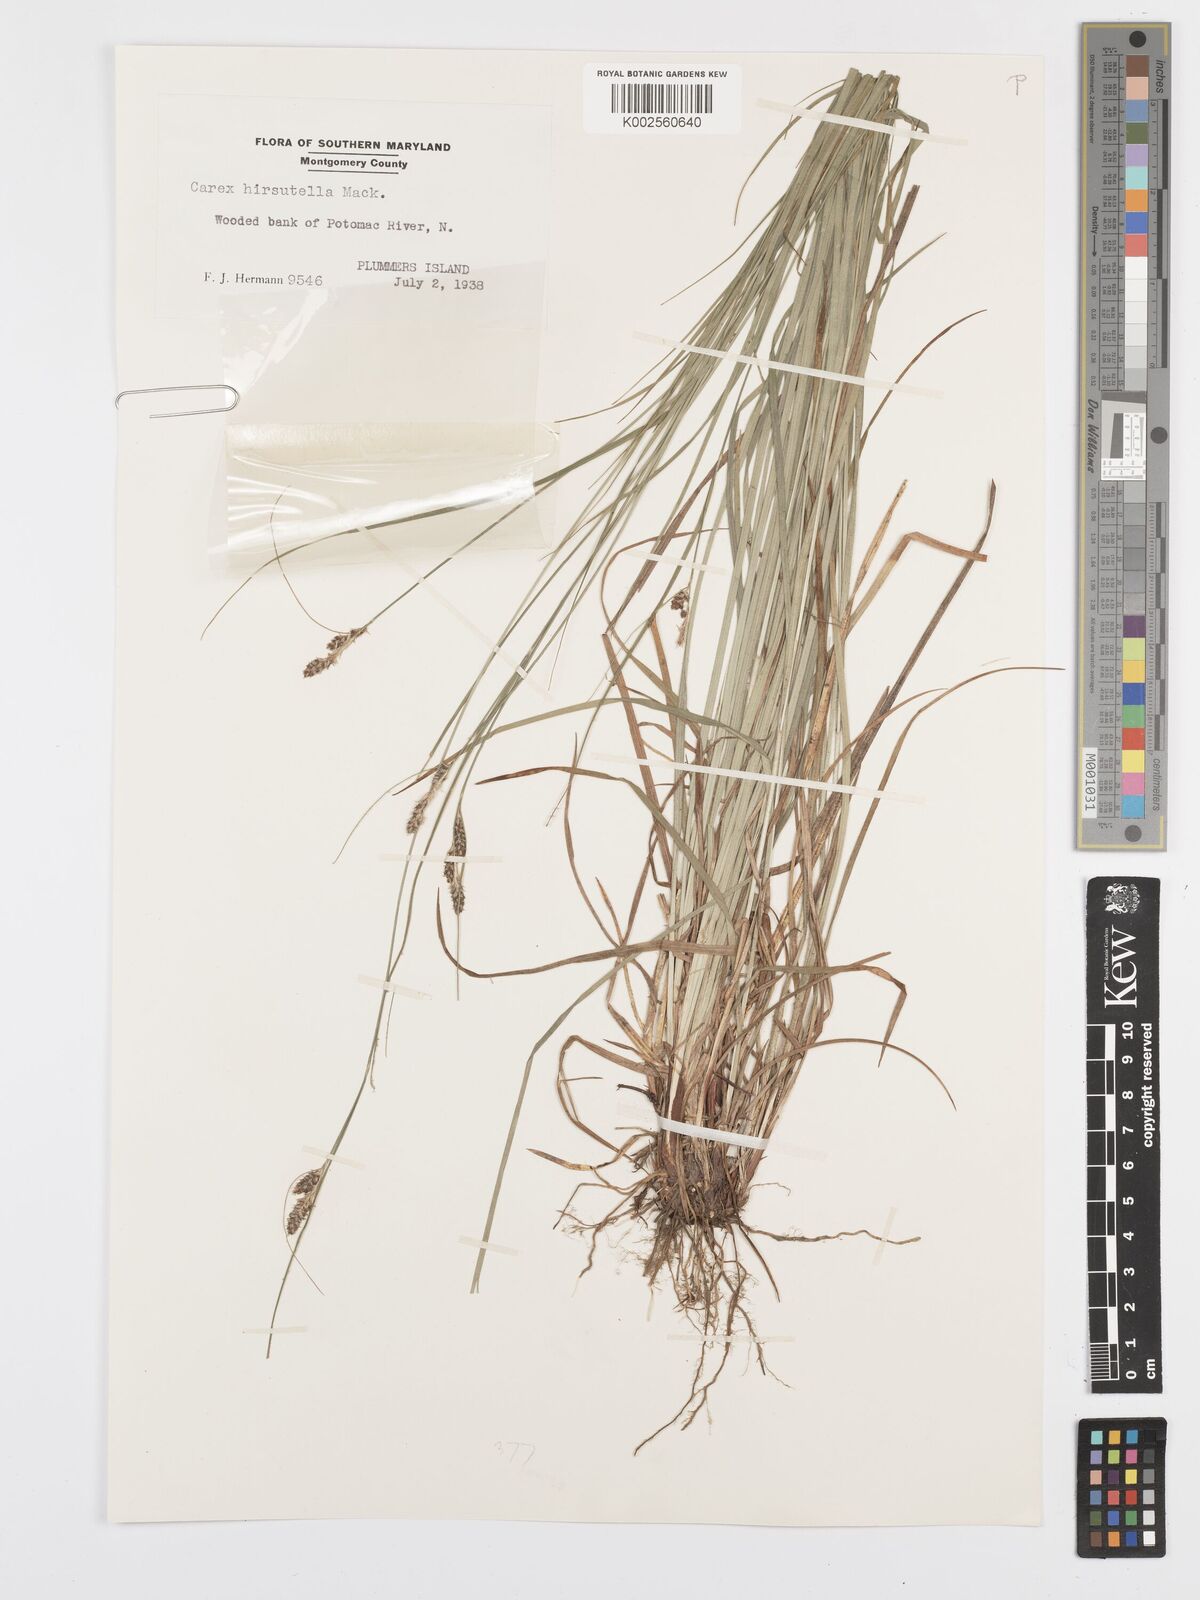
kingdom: Plantae
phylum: Tracheophyta
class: Liliopsida
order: Poales
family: Cyperaceae
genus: Carex
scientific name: Carex hirsutella
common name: Fuzzy wuzzy sedge
